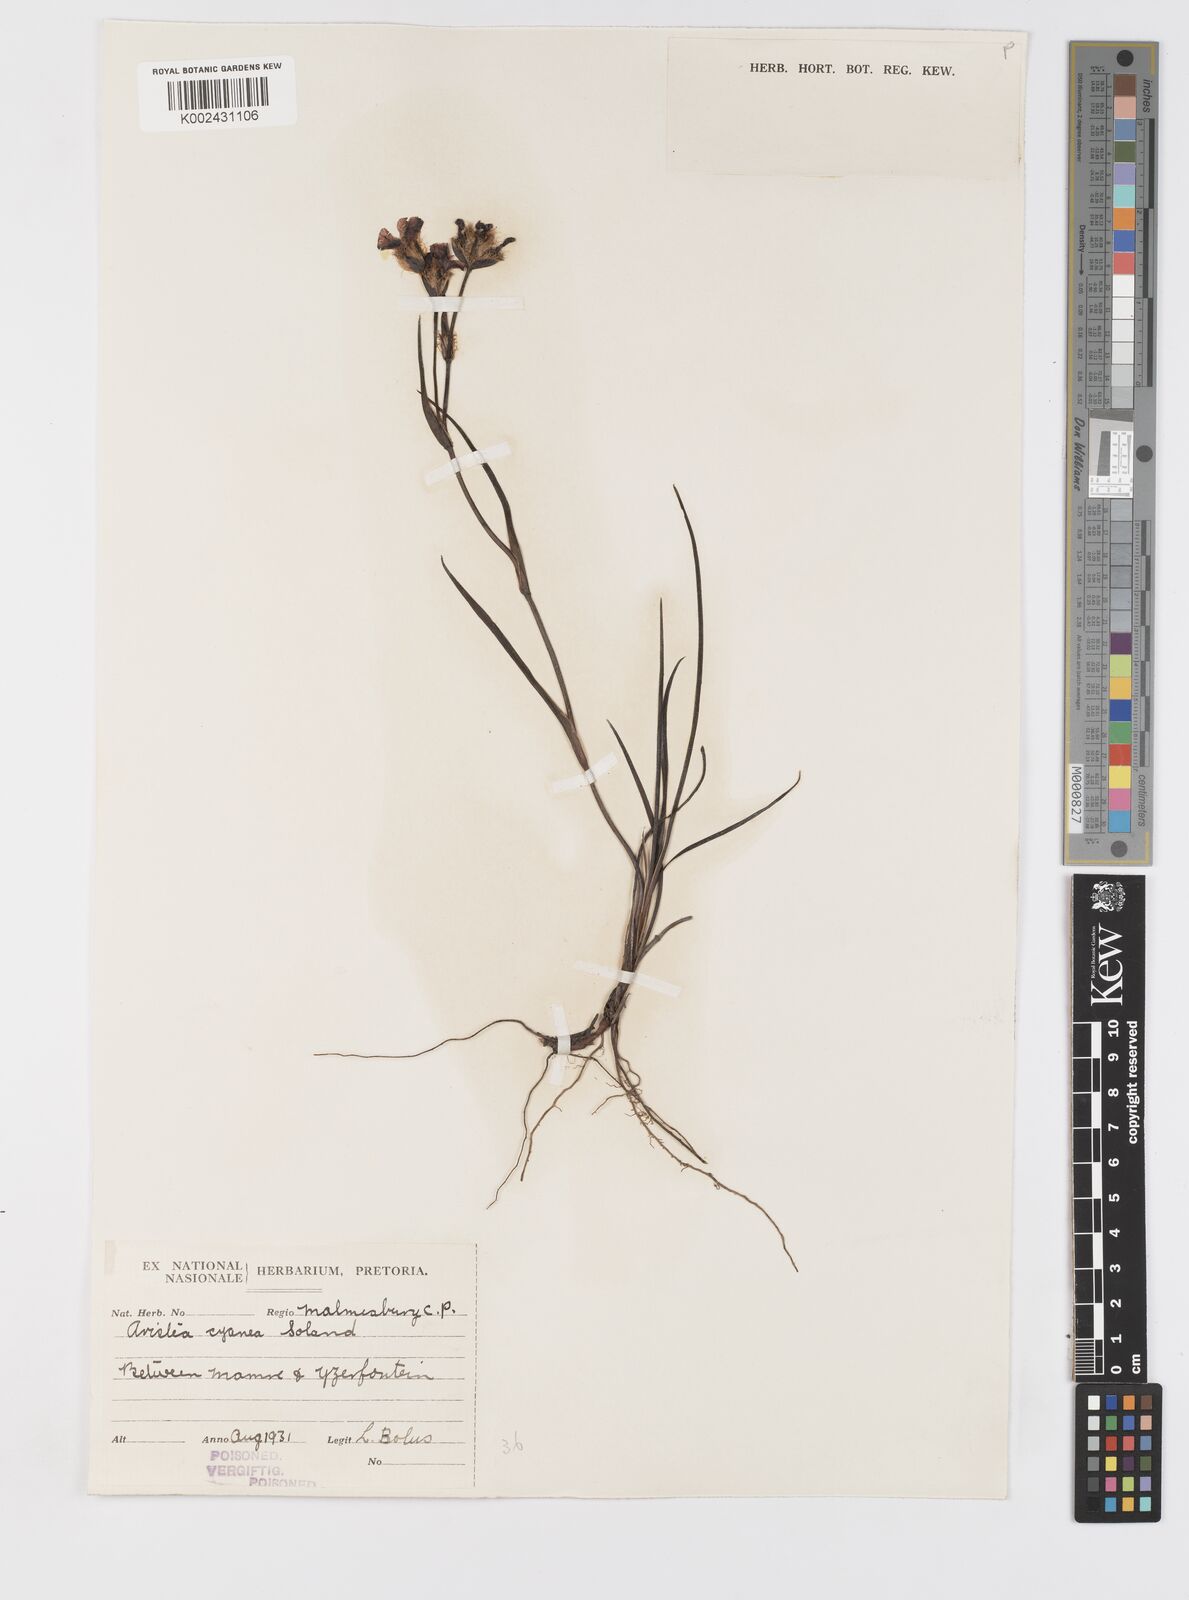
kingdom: Plantae
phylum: Tracheophyta
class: Liliopsida
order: Asparagales
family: Iridaceae
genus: Aristea
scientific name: Aristea africana
